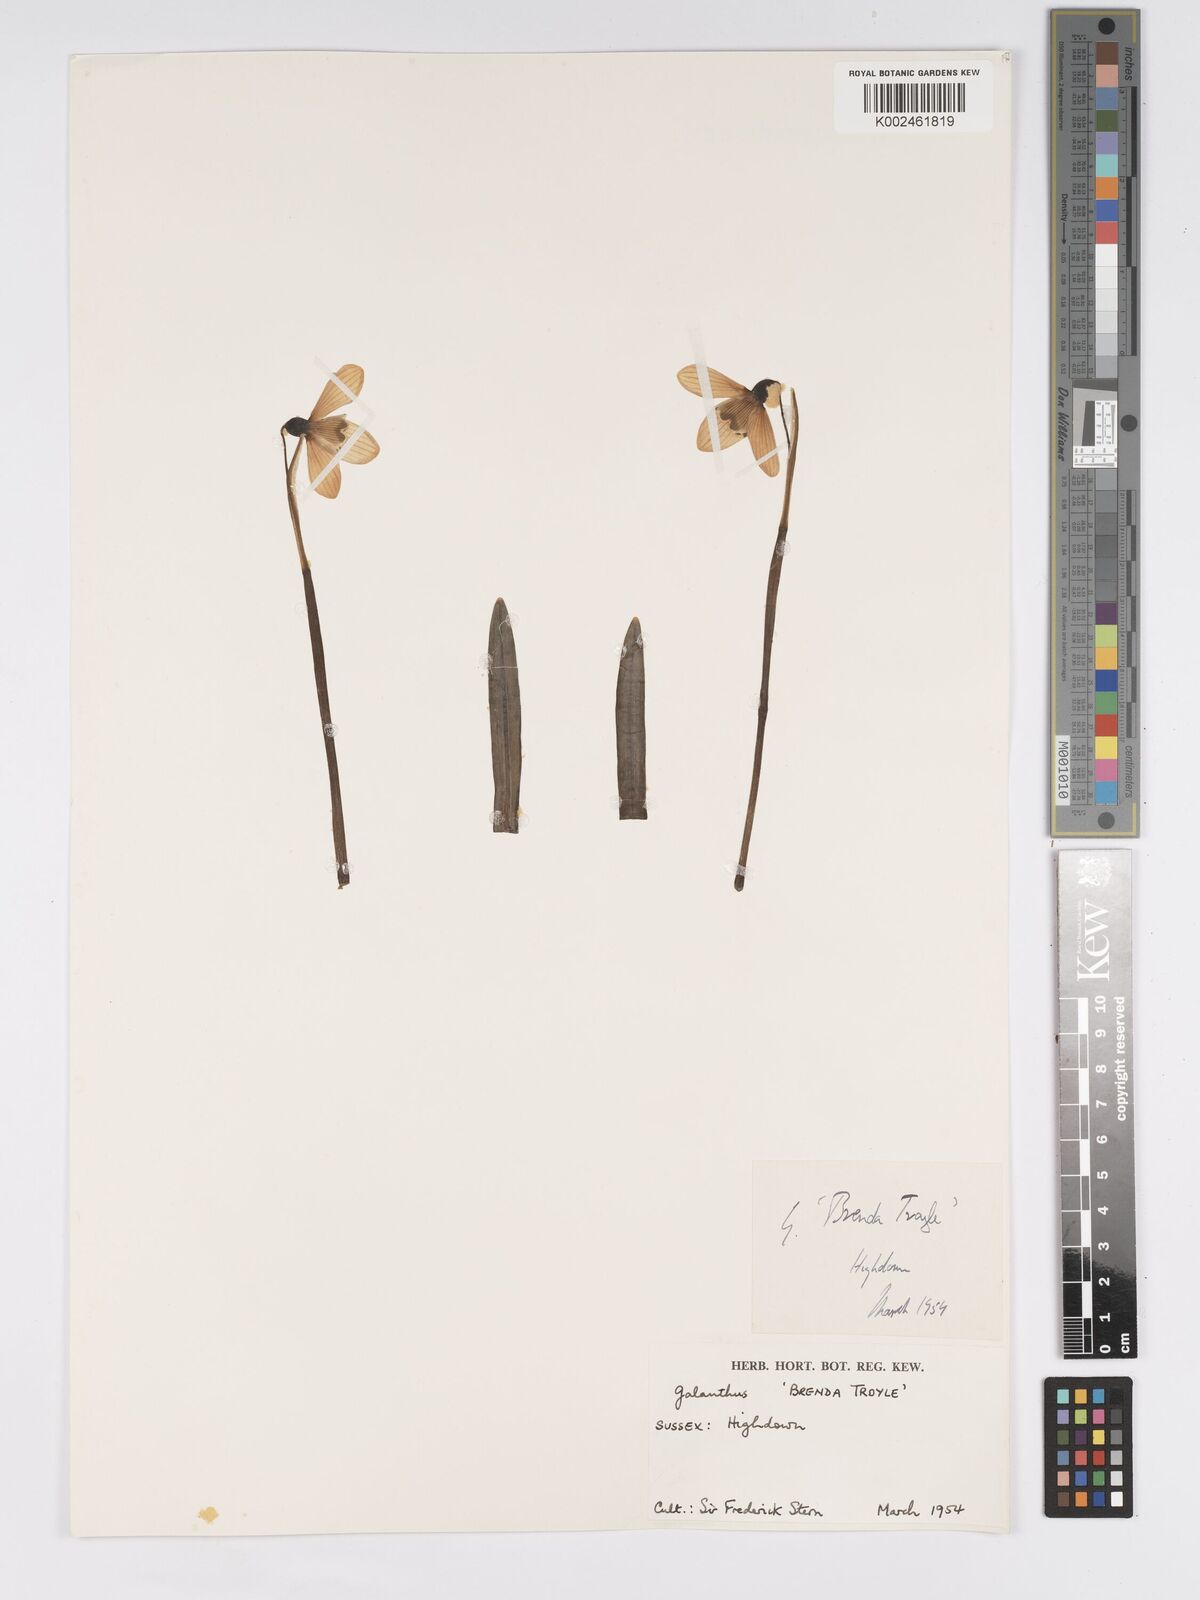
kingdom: Plantae
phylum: Tracheophyta
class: Liliopsida
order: Asparagales
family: Amaryllidaceae
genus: Galanthus
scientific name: Galanthus
